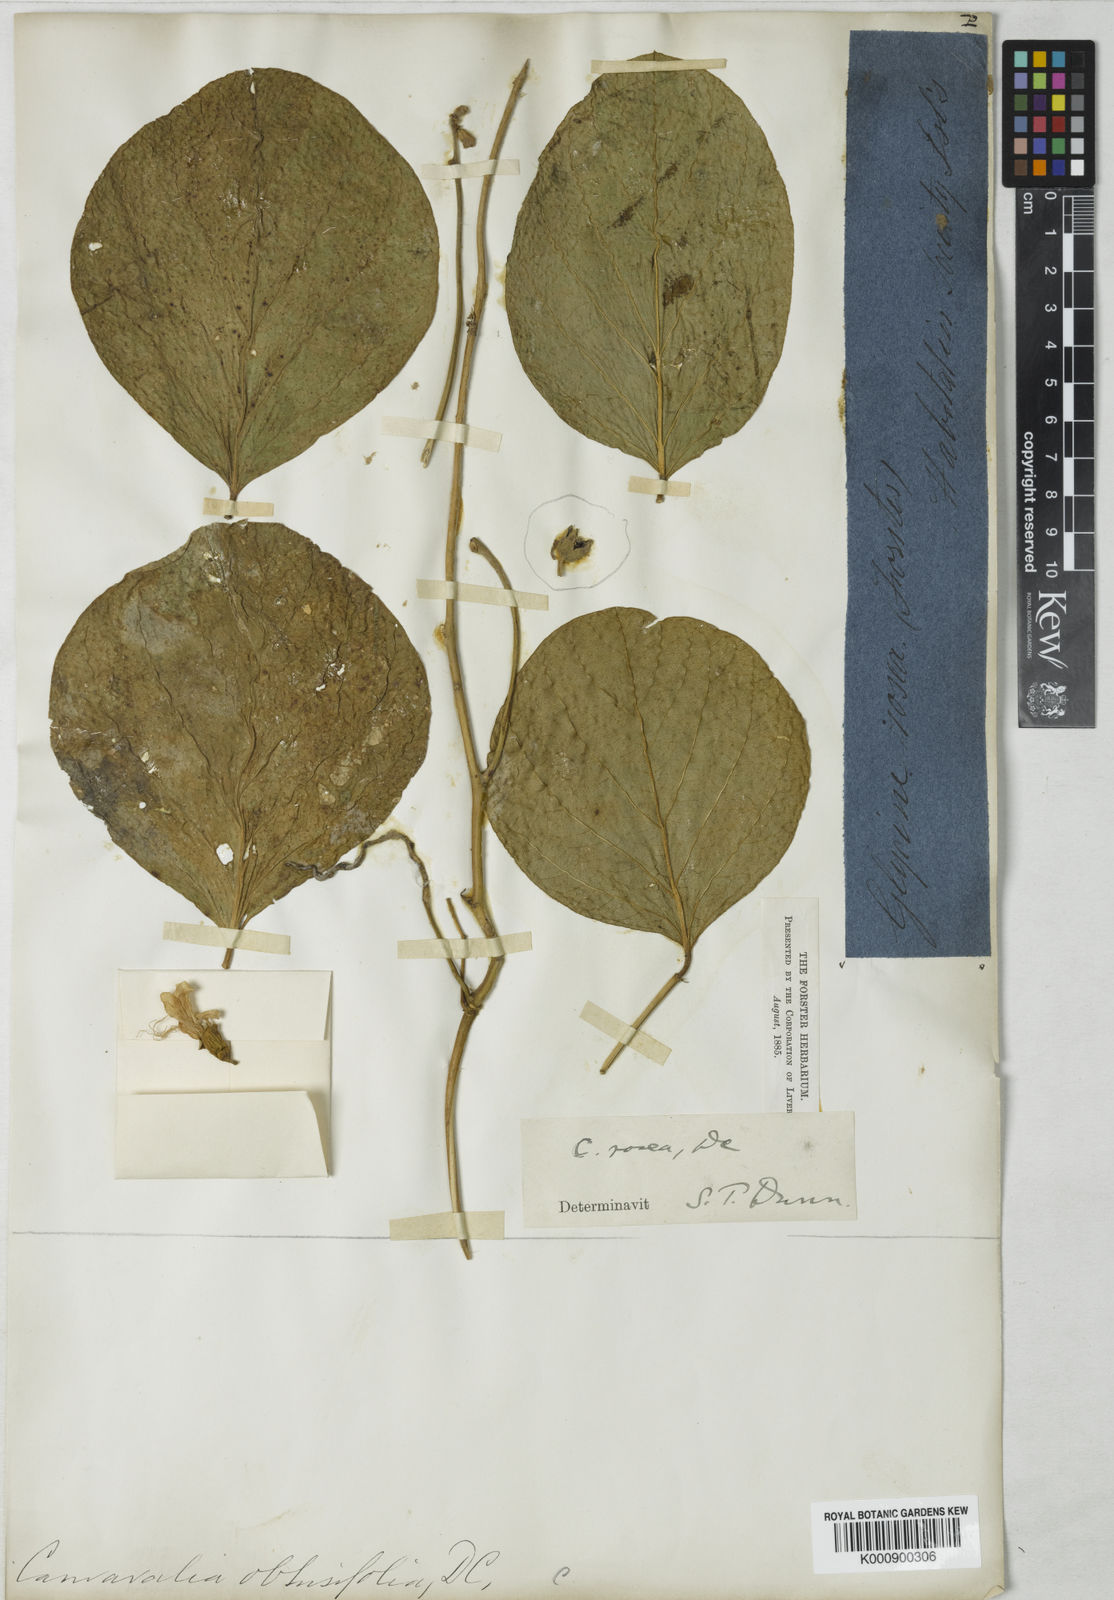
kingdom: Plantae
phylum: Tracheophyta
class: Magnoliopsida
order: Fabales
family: Fabaceae
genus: Canavalia
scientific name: Canavalia rosea
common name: Beach-bean
